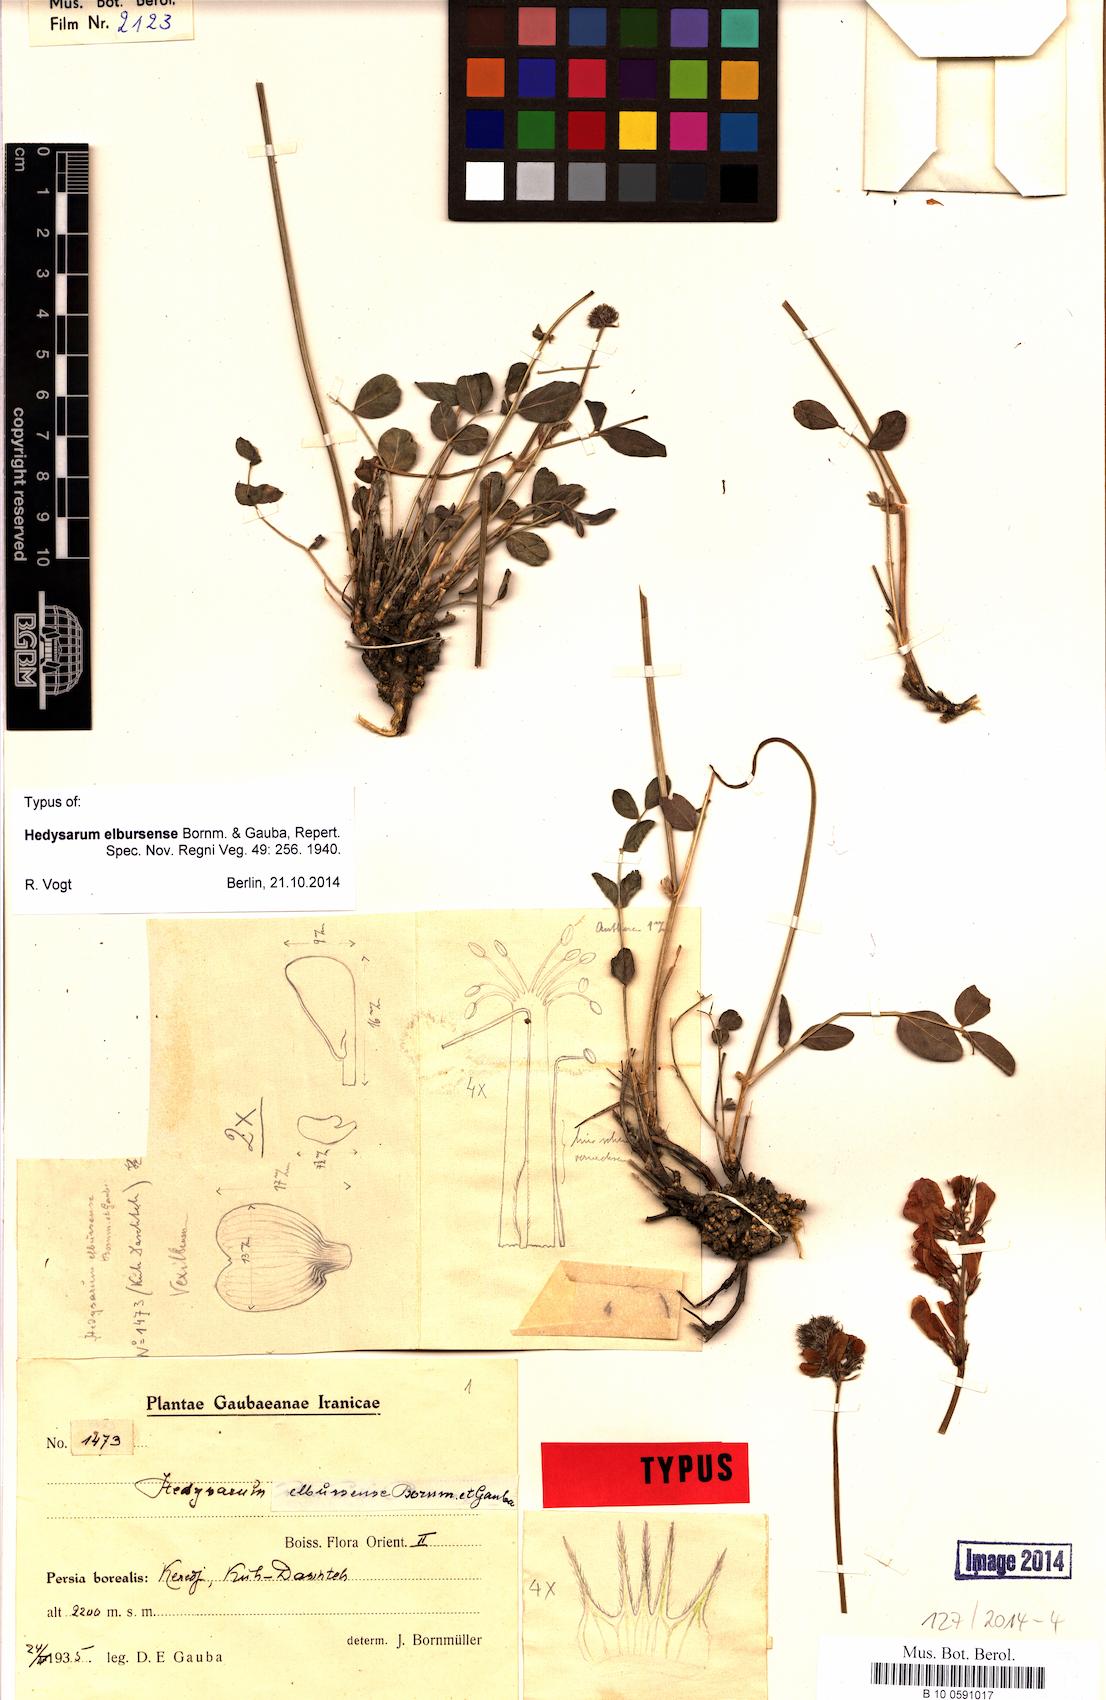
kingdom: Plantae
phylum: Tracheophyta
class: Magnoliopsida
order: Fabales
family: Fabaceae
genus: Hedysarum
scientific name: Hedysarum hyrcanum
